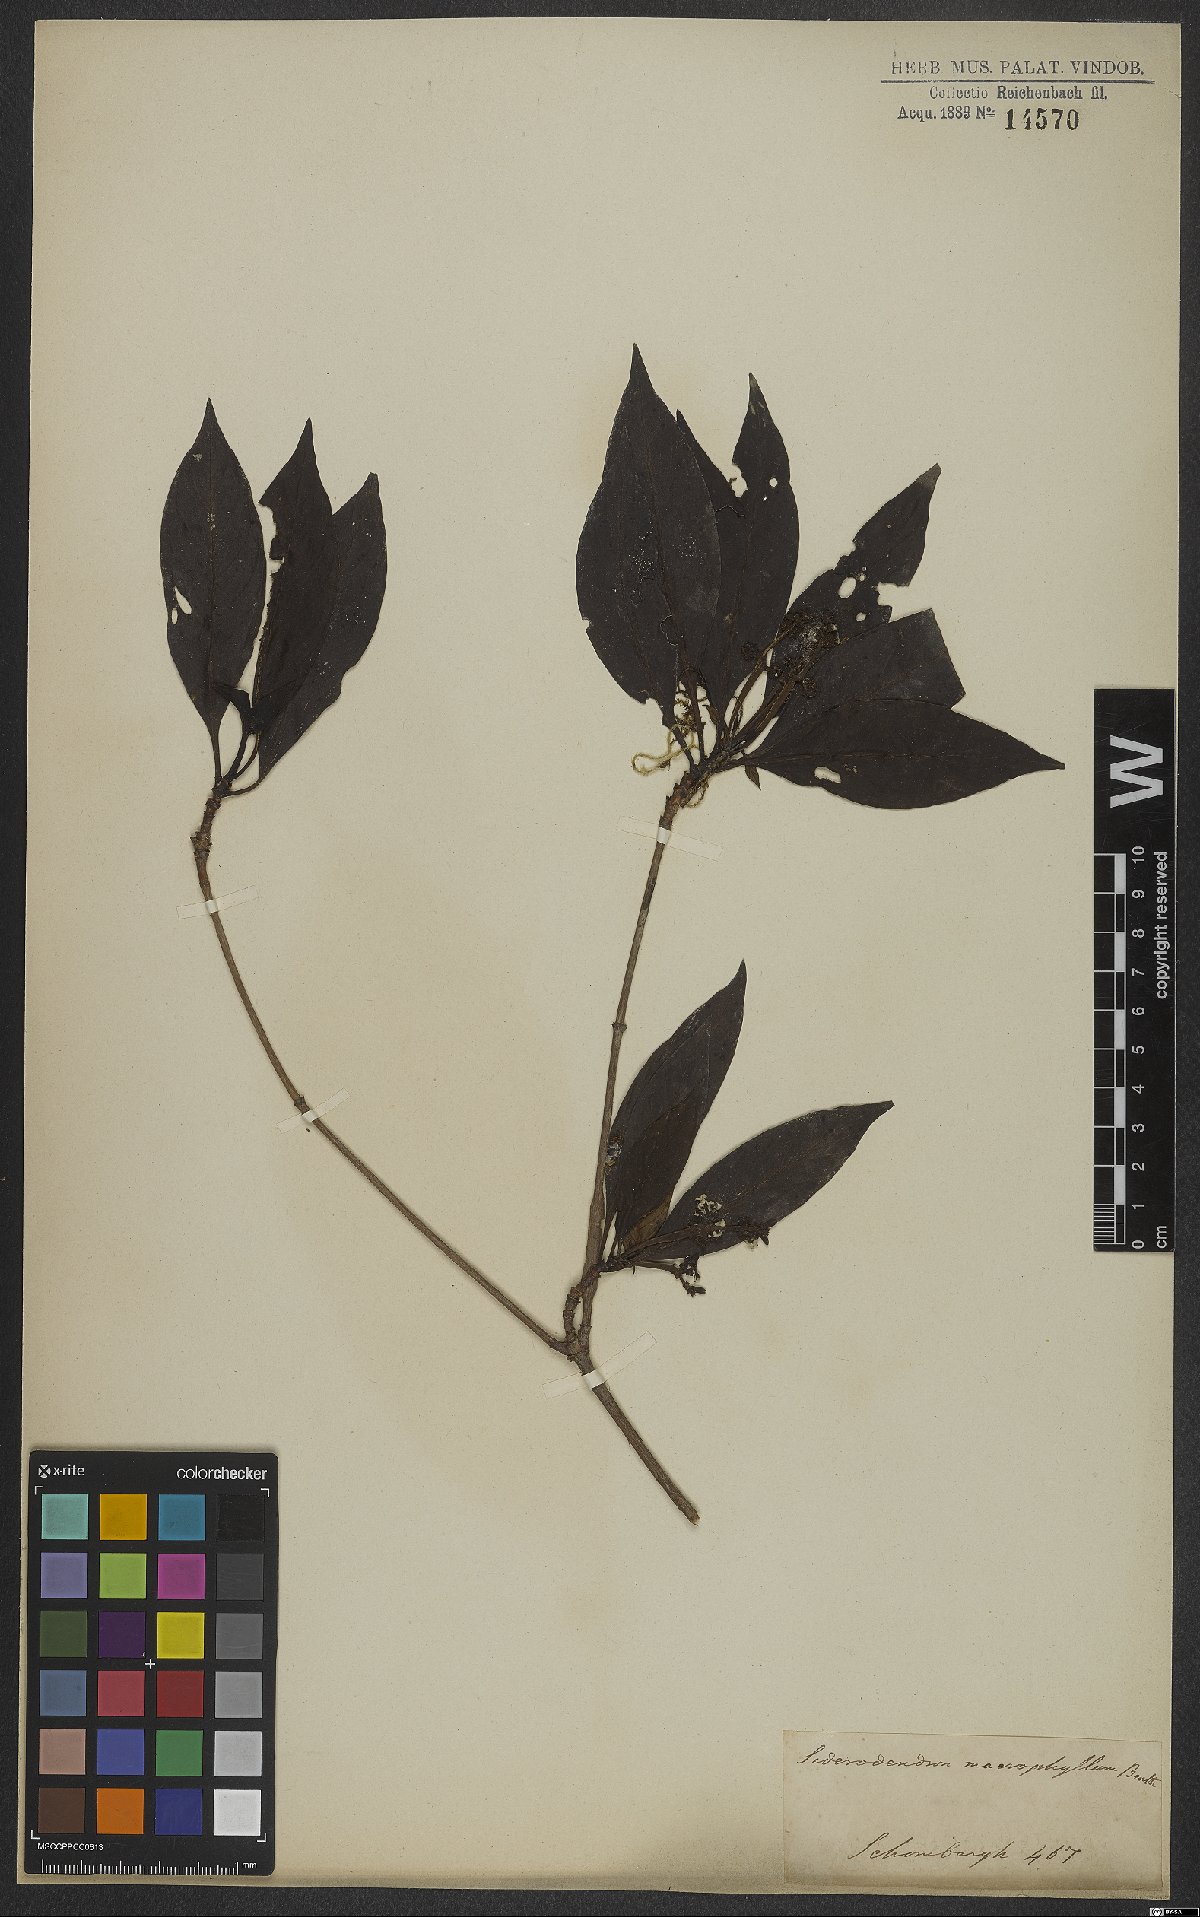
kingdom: Plantae
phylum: Tracheophyta
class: Magnoliopsida
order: Gentianales
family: Rubiaceae
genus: Ixora
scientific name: Ixora macrophylla
